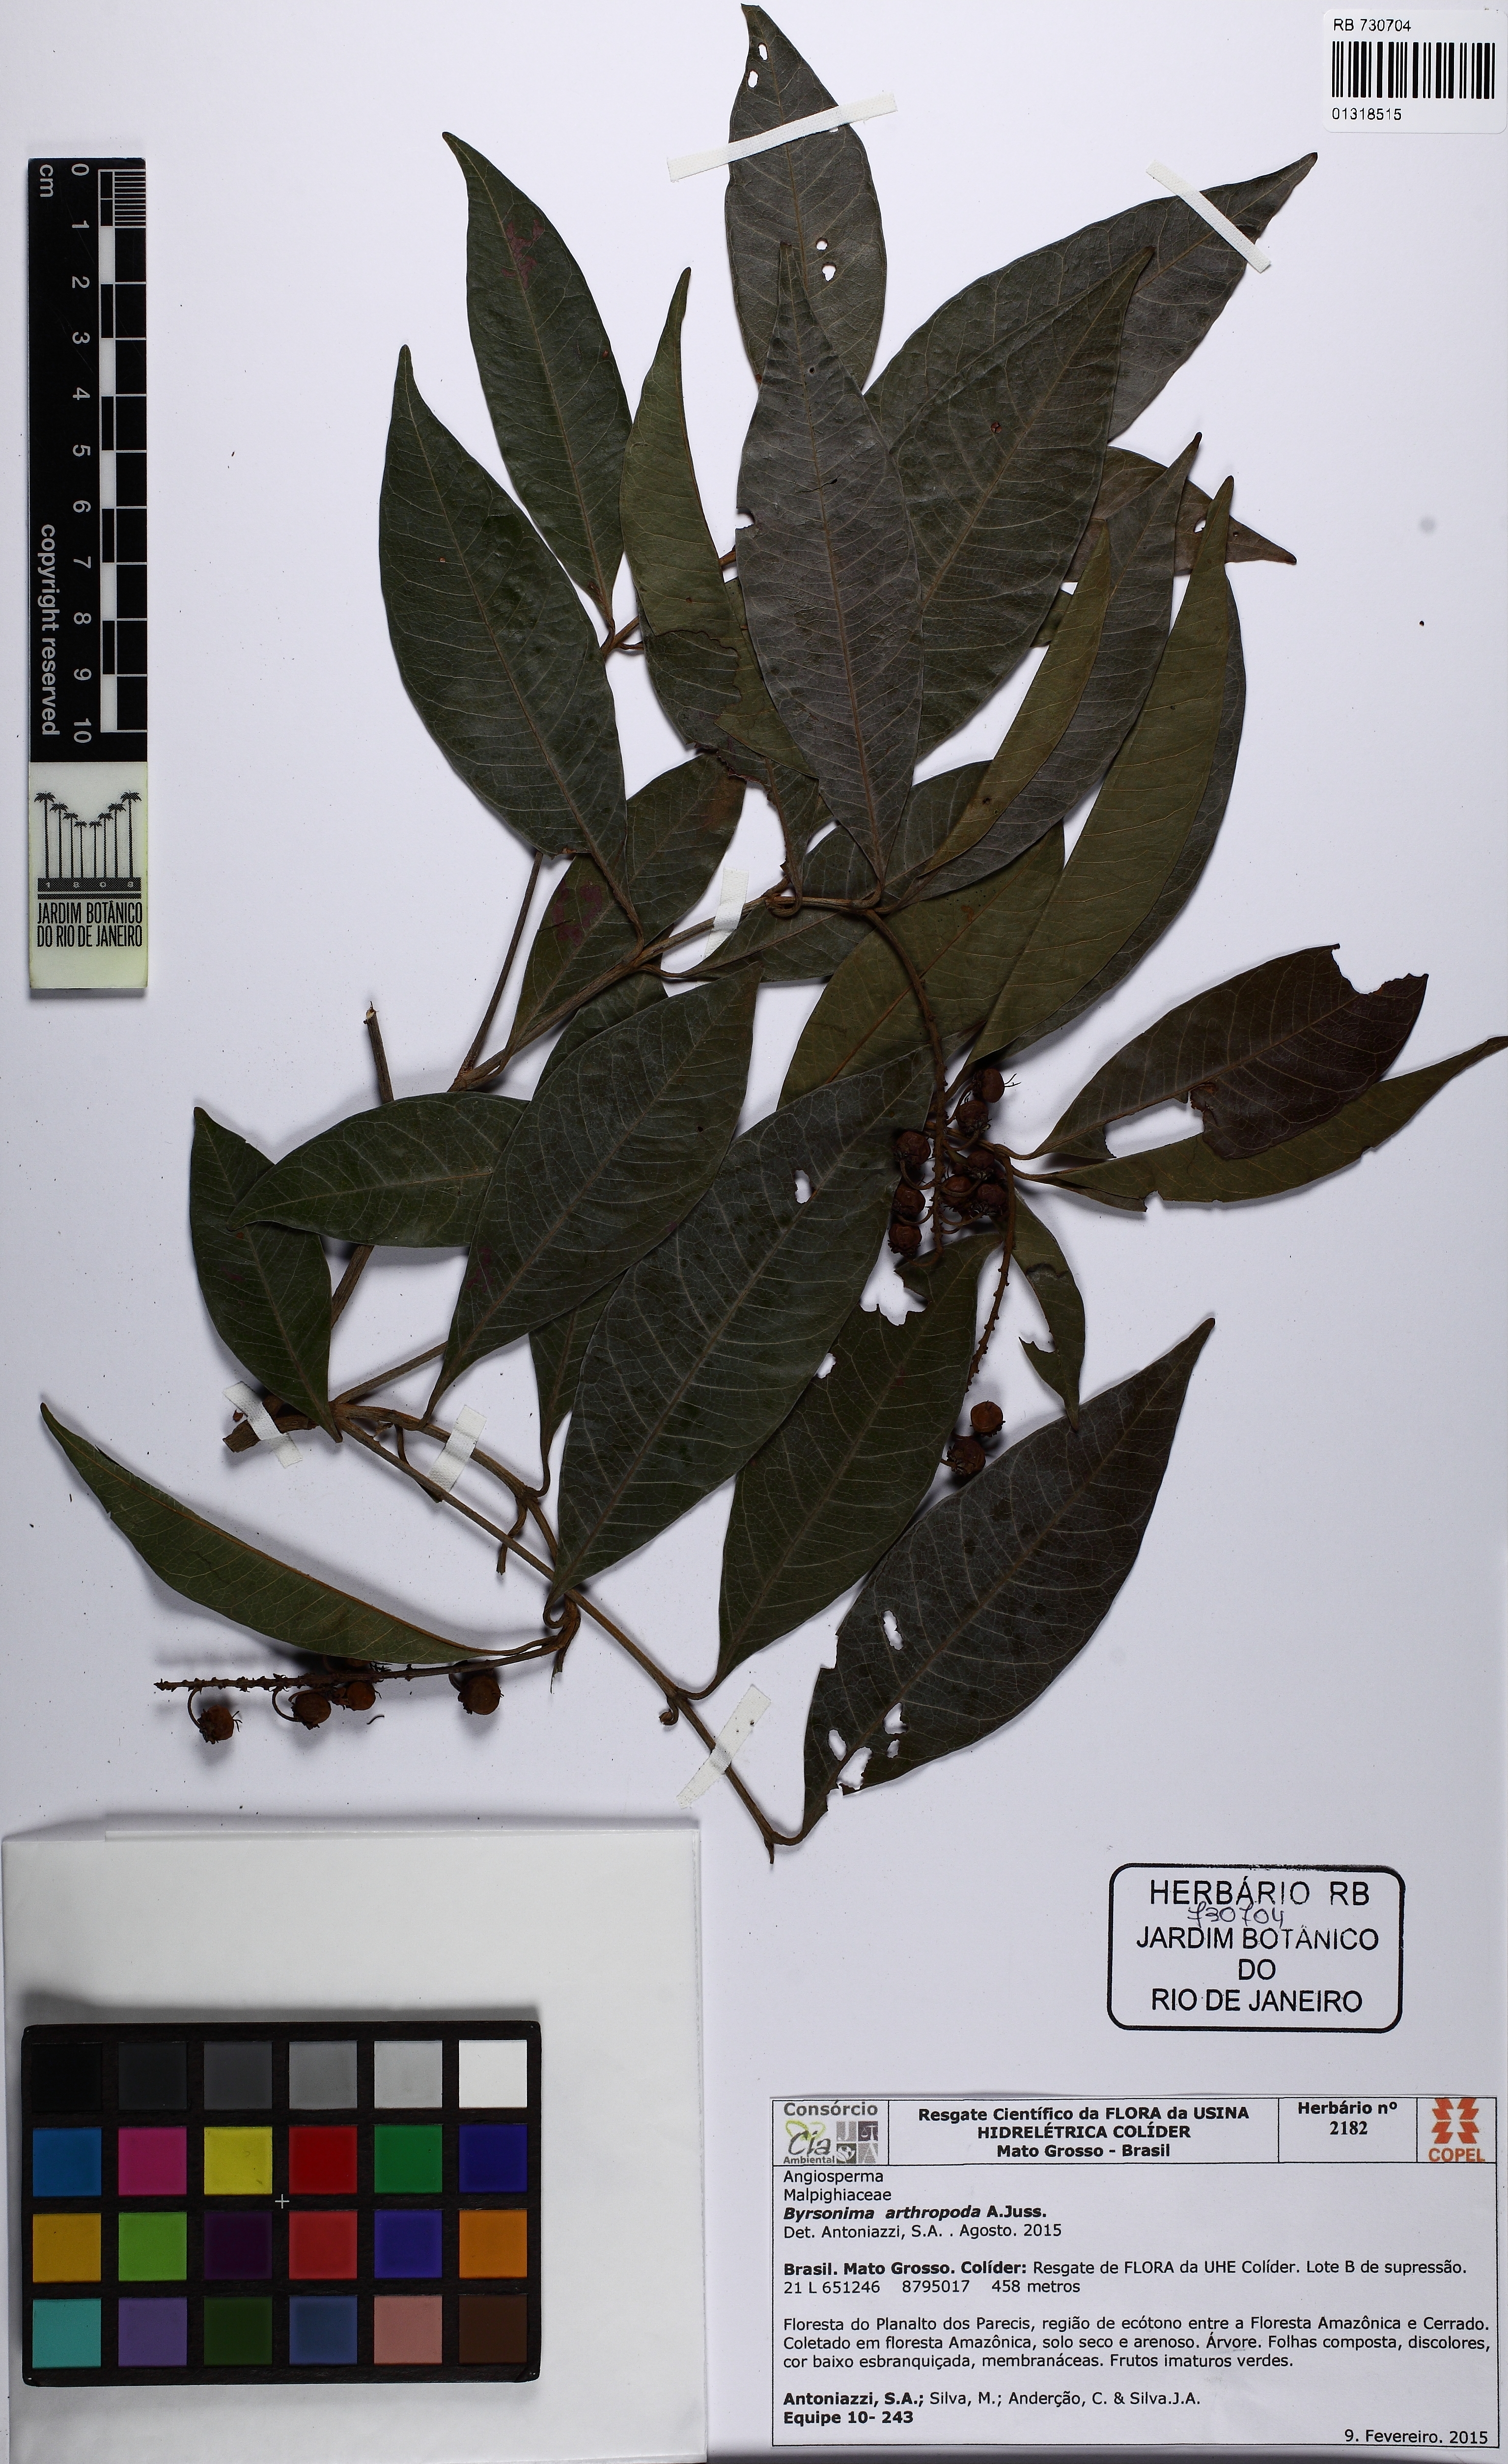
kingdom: Plantae
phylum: Tracheophyta
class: Magnoliopsida
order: Malpighiales
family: Malpighiaceae
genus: Byrsonima
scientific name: Byrsonima arthropoda
